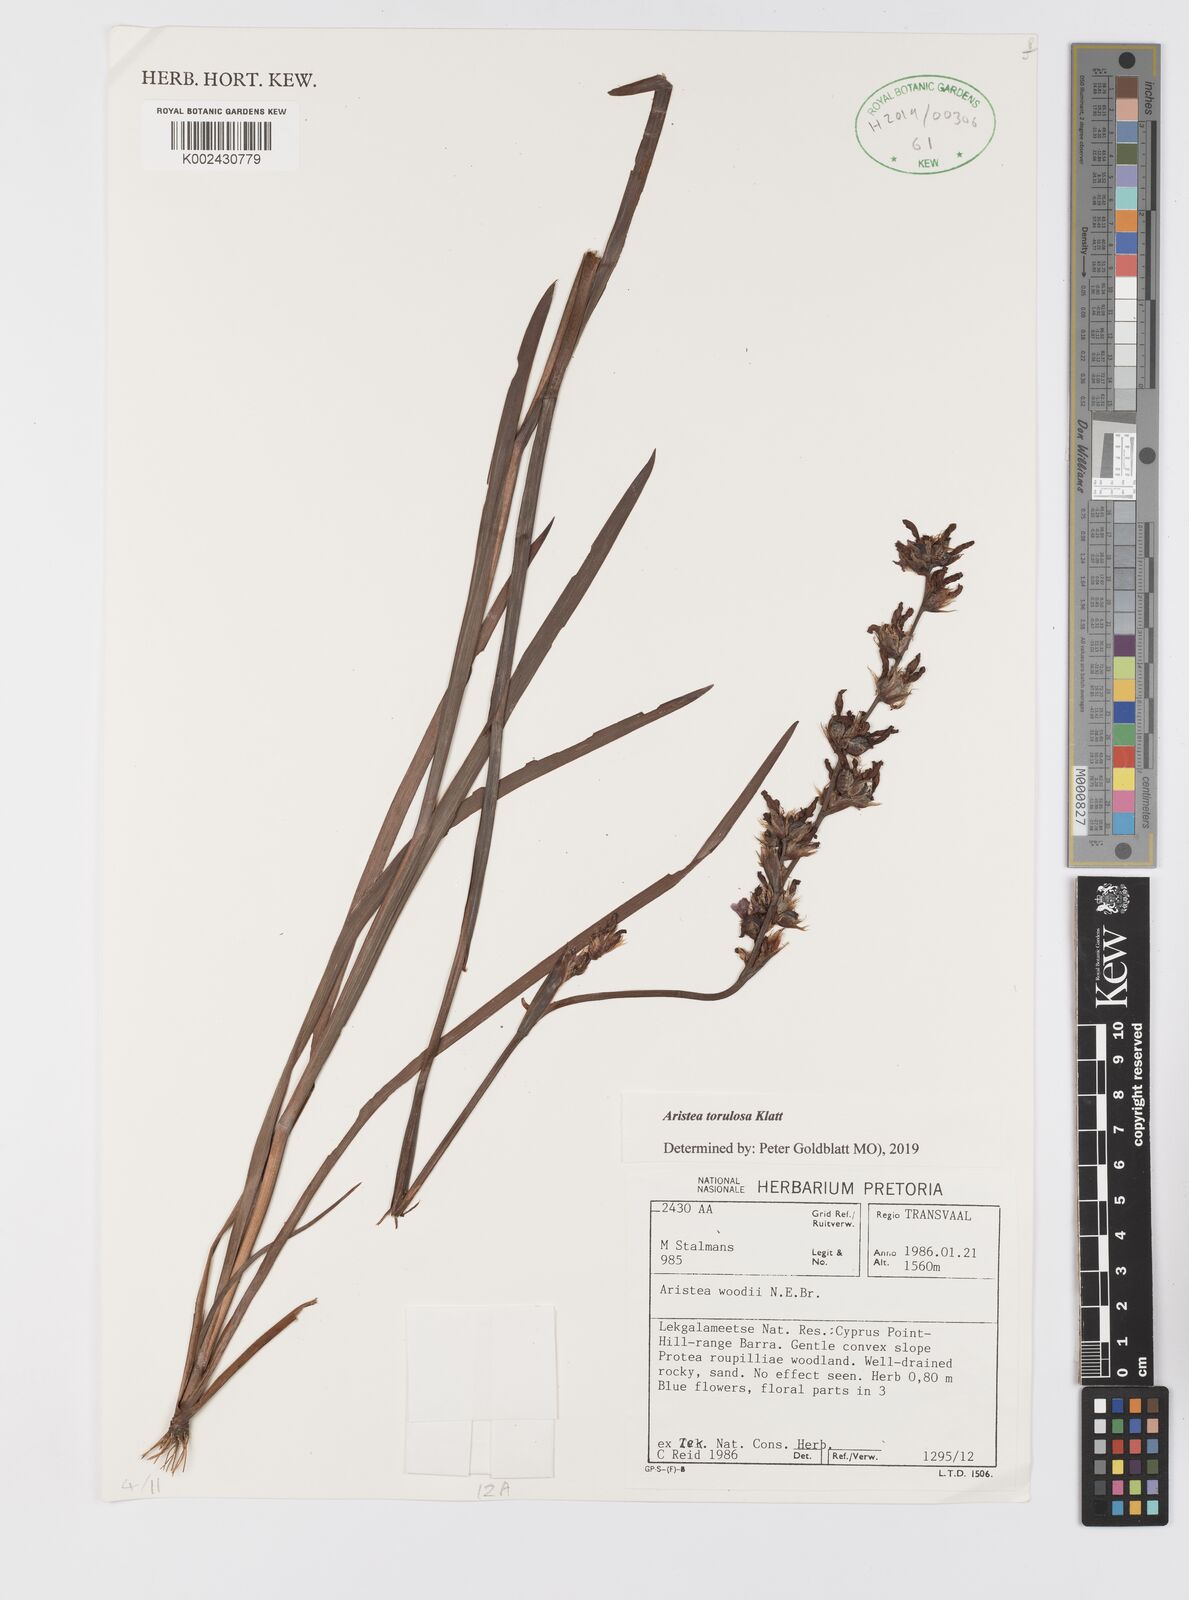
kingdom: Plantae
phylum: Tracheophyta
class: Liliopsida
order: Asparagales
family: Iridaceae
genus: Aristea
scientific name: Aristea torulosa
